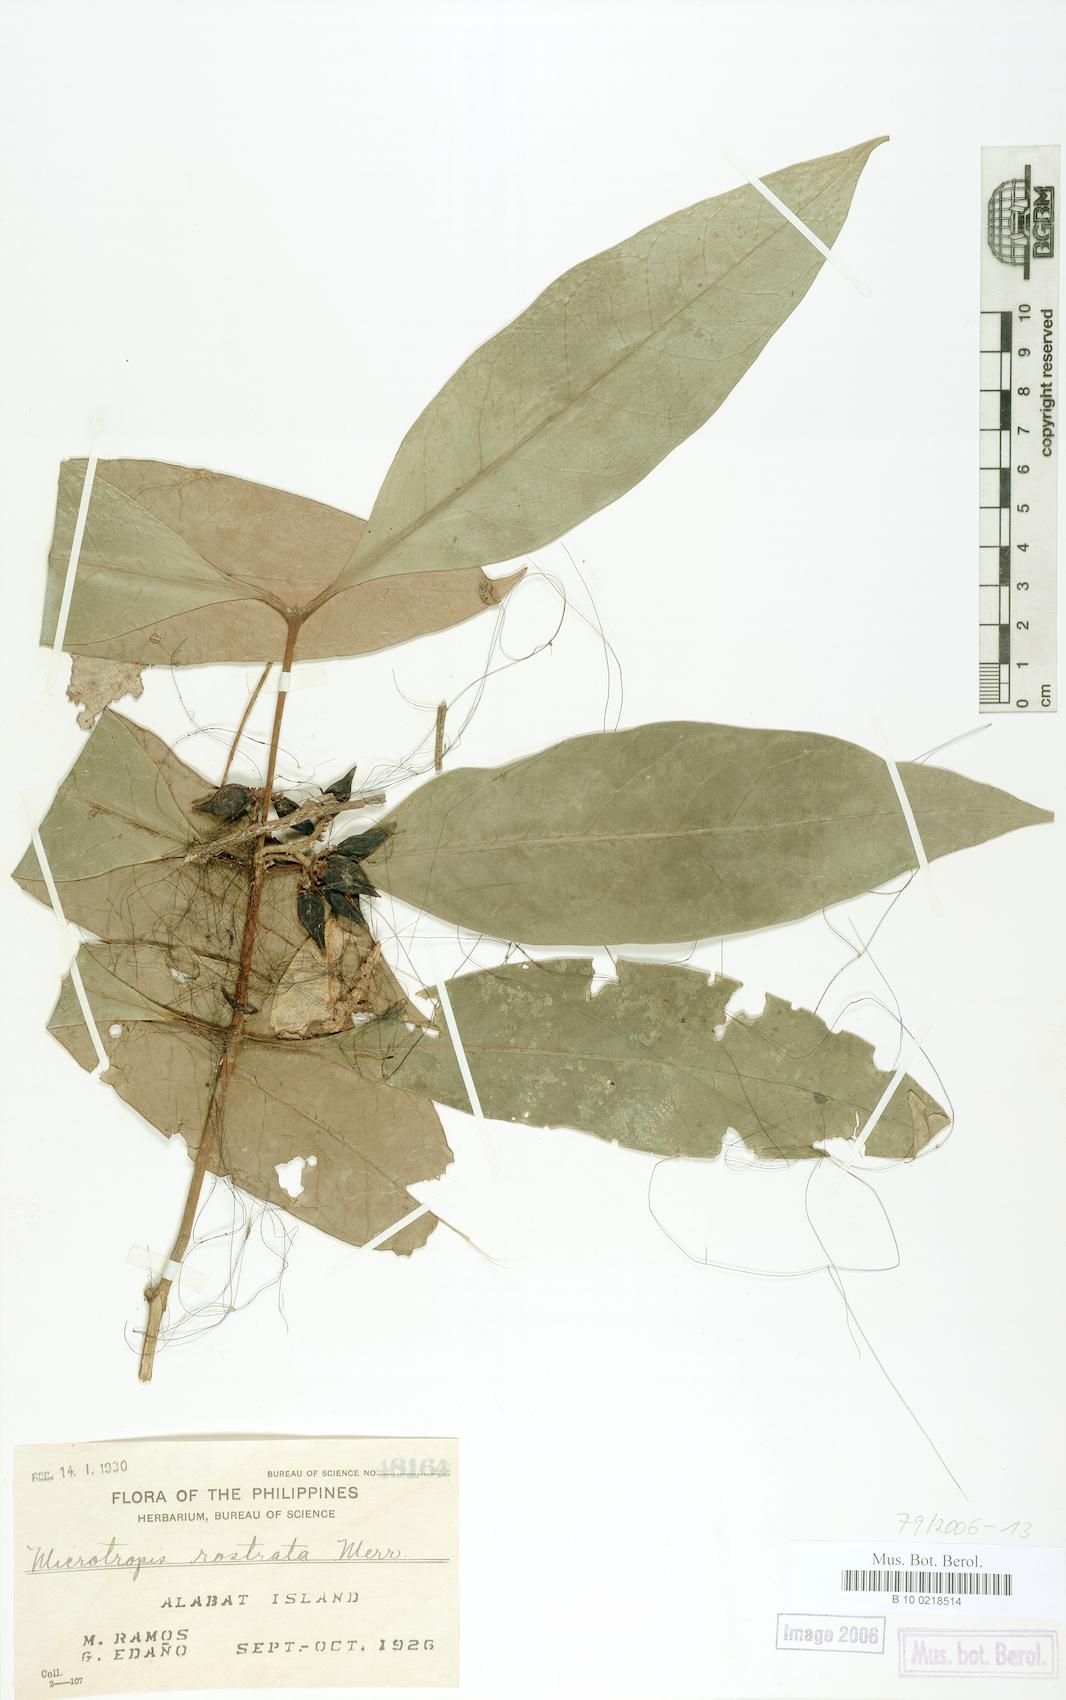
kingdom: Plantae
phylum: Tracheophyta
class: Magnoliopsida
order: Celastrales
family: Celastraceae
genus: Microtropis
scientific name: Microtropis platyphylla
